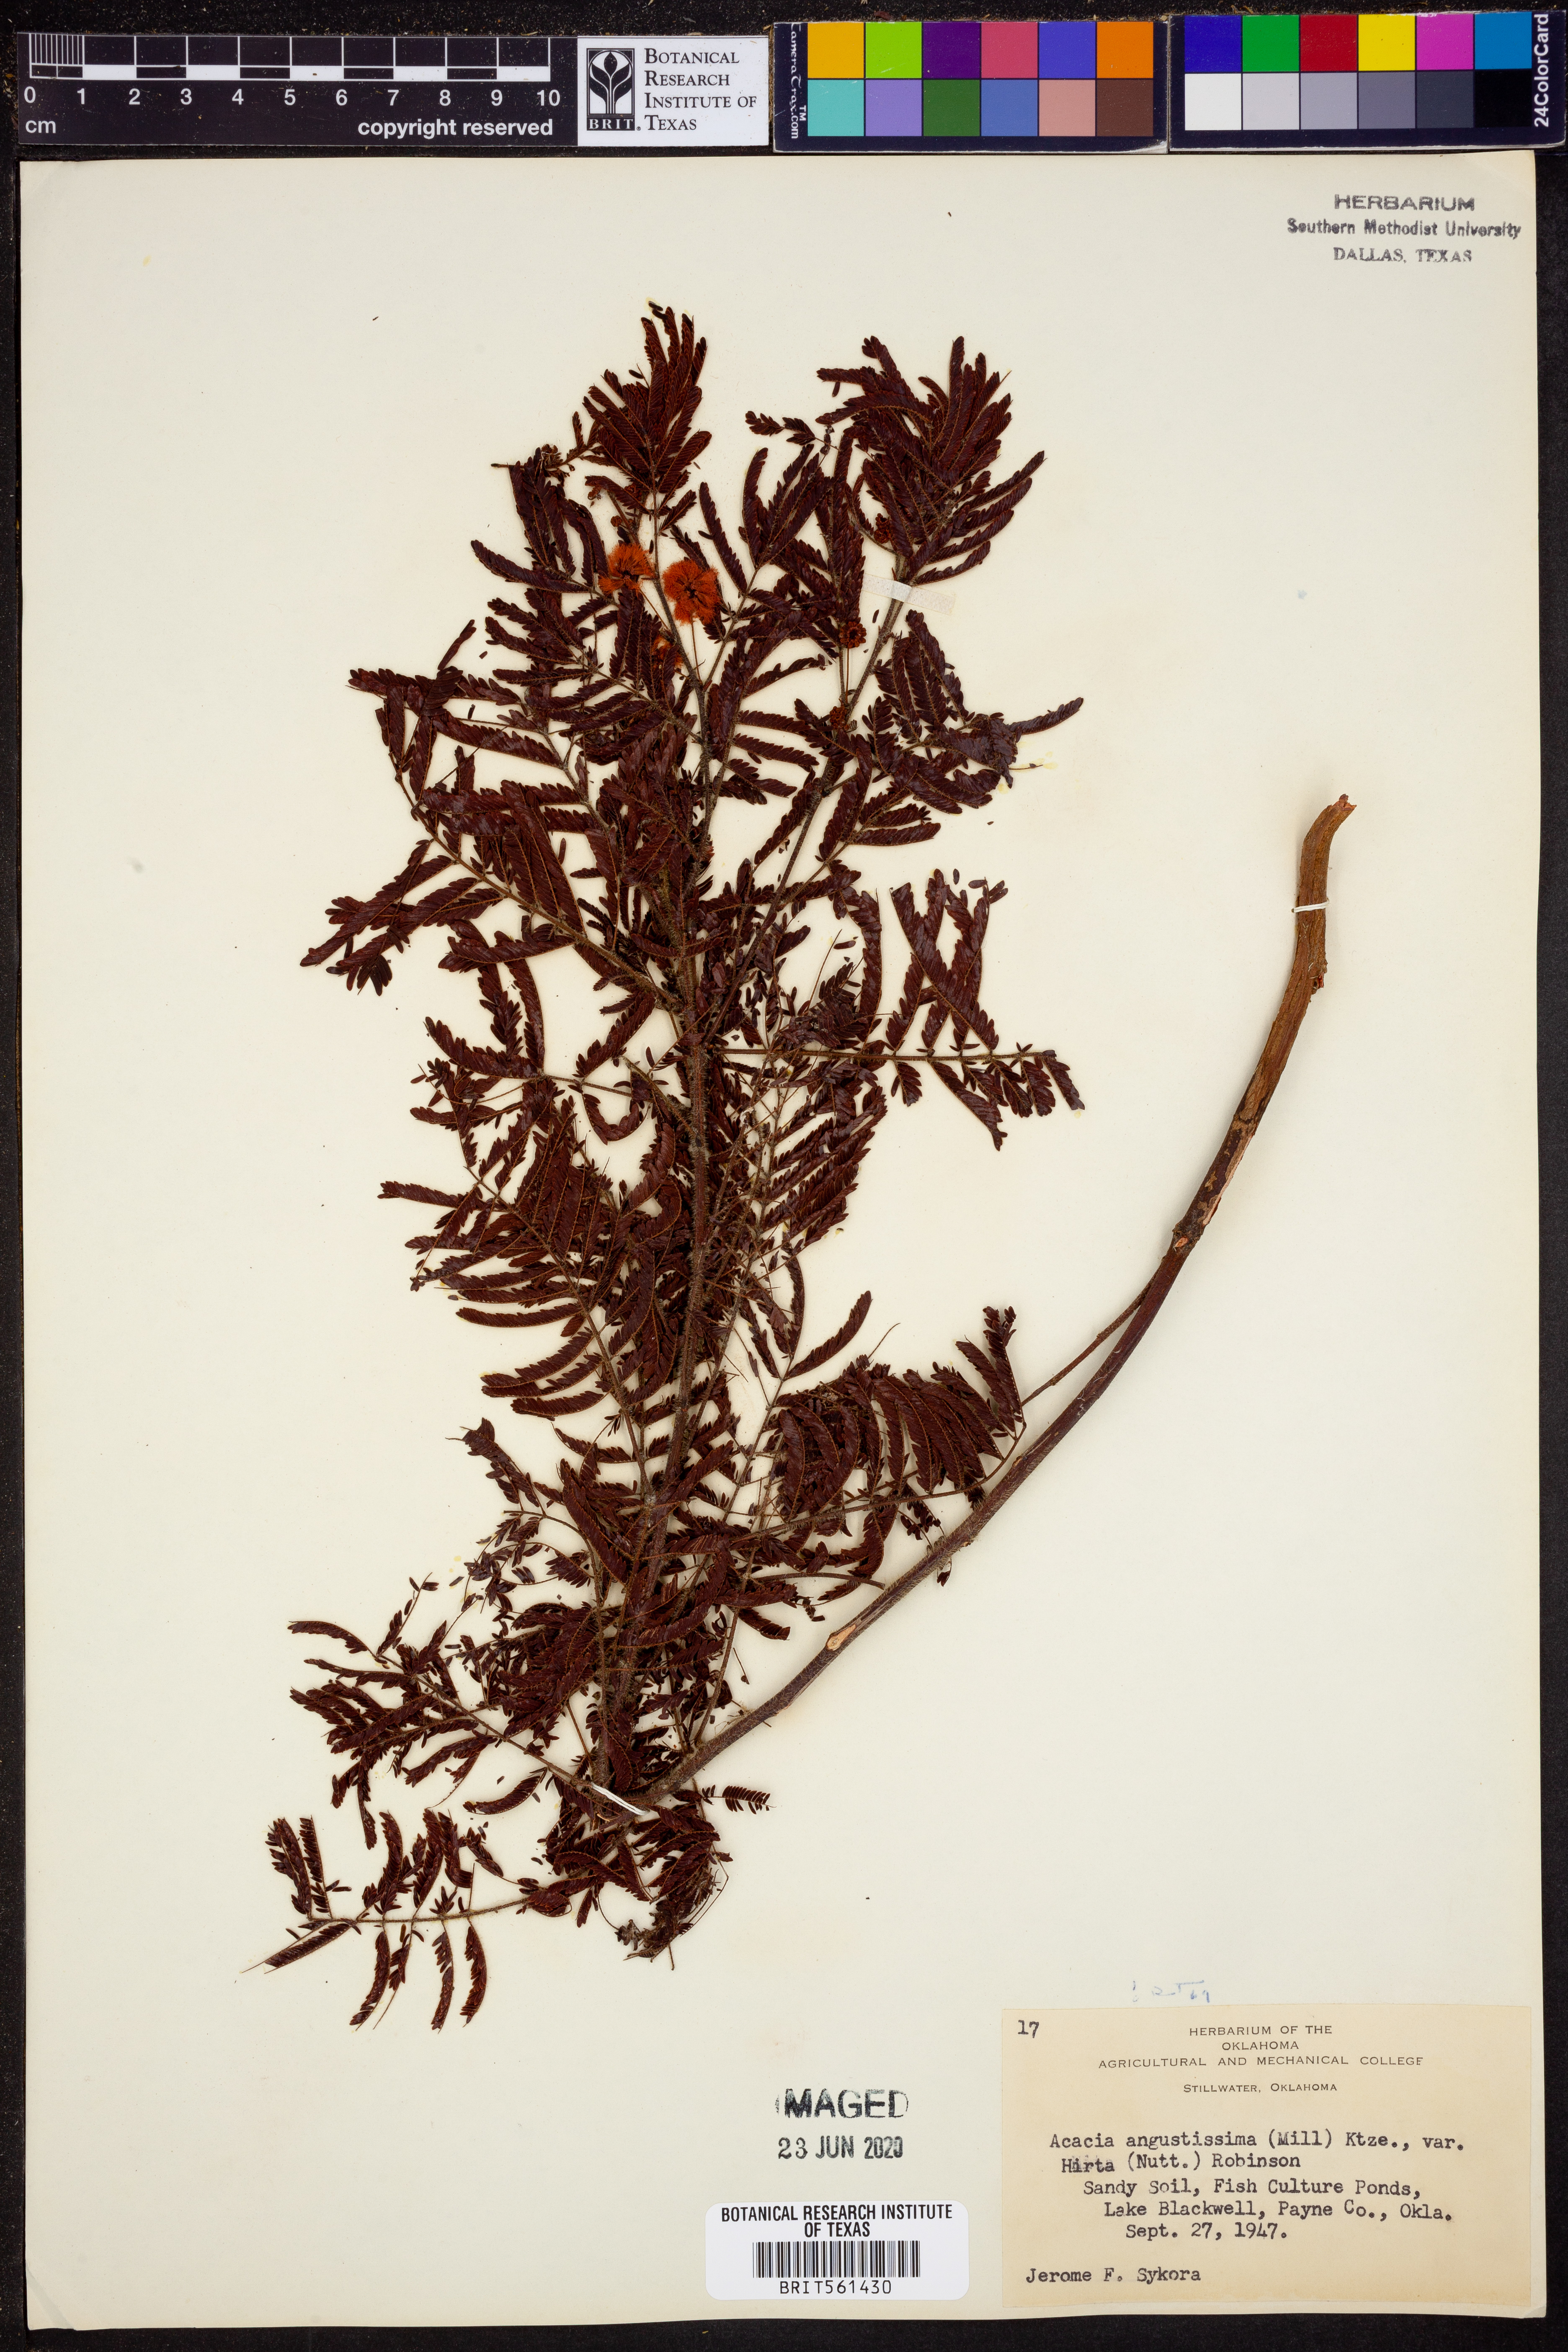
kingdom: Plantae
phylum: Tracheophyta
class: Magnoliopsida
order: Fabales
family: Fabaceae
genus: Acaciella
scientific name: Acaciella angustissima
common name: Prairie acacia
